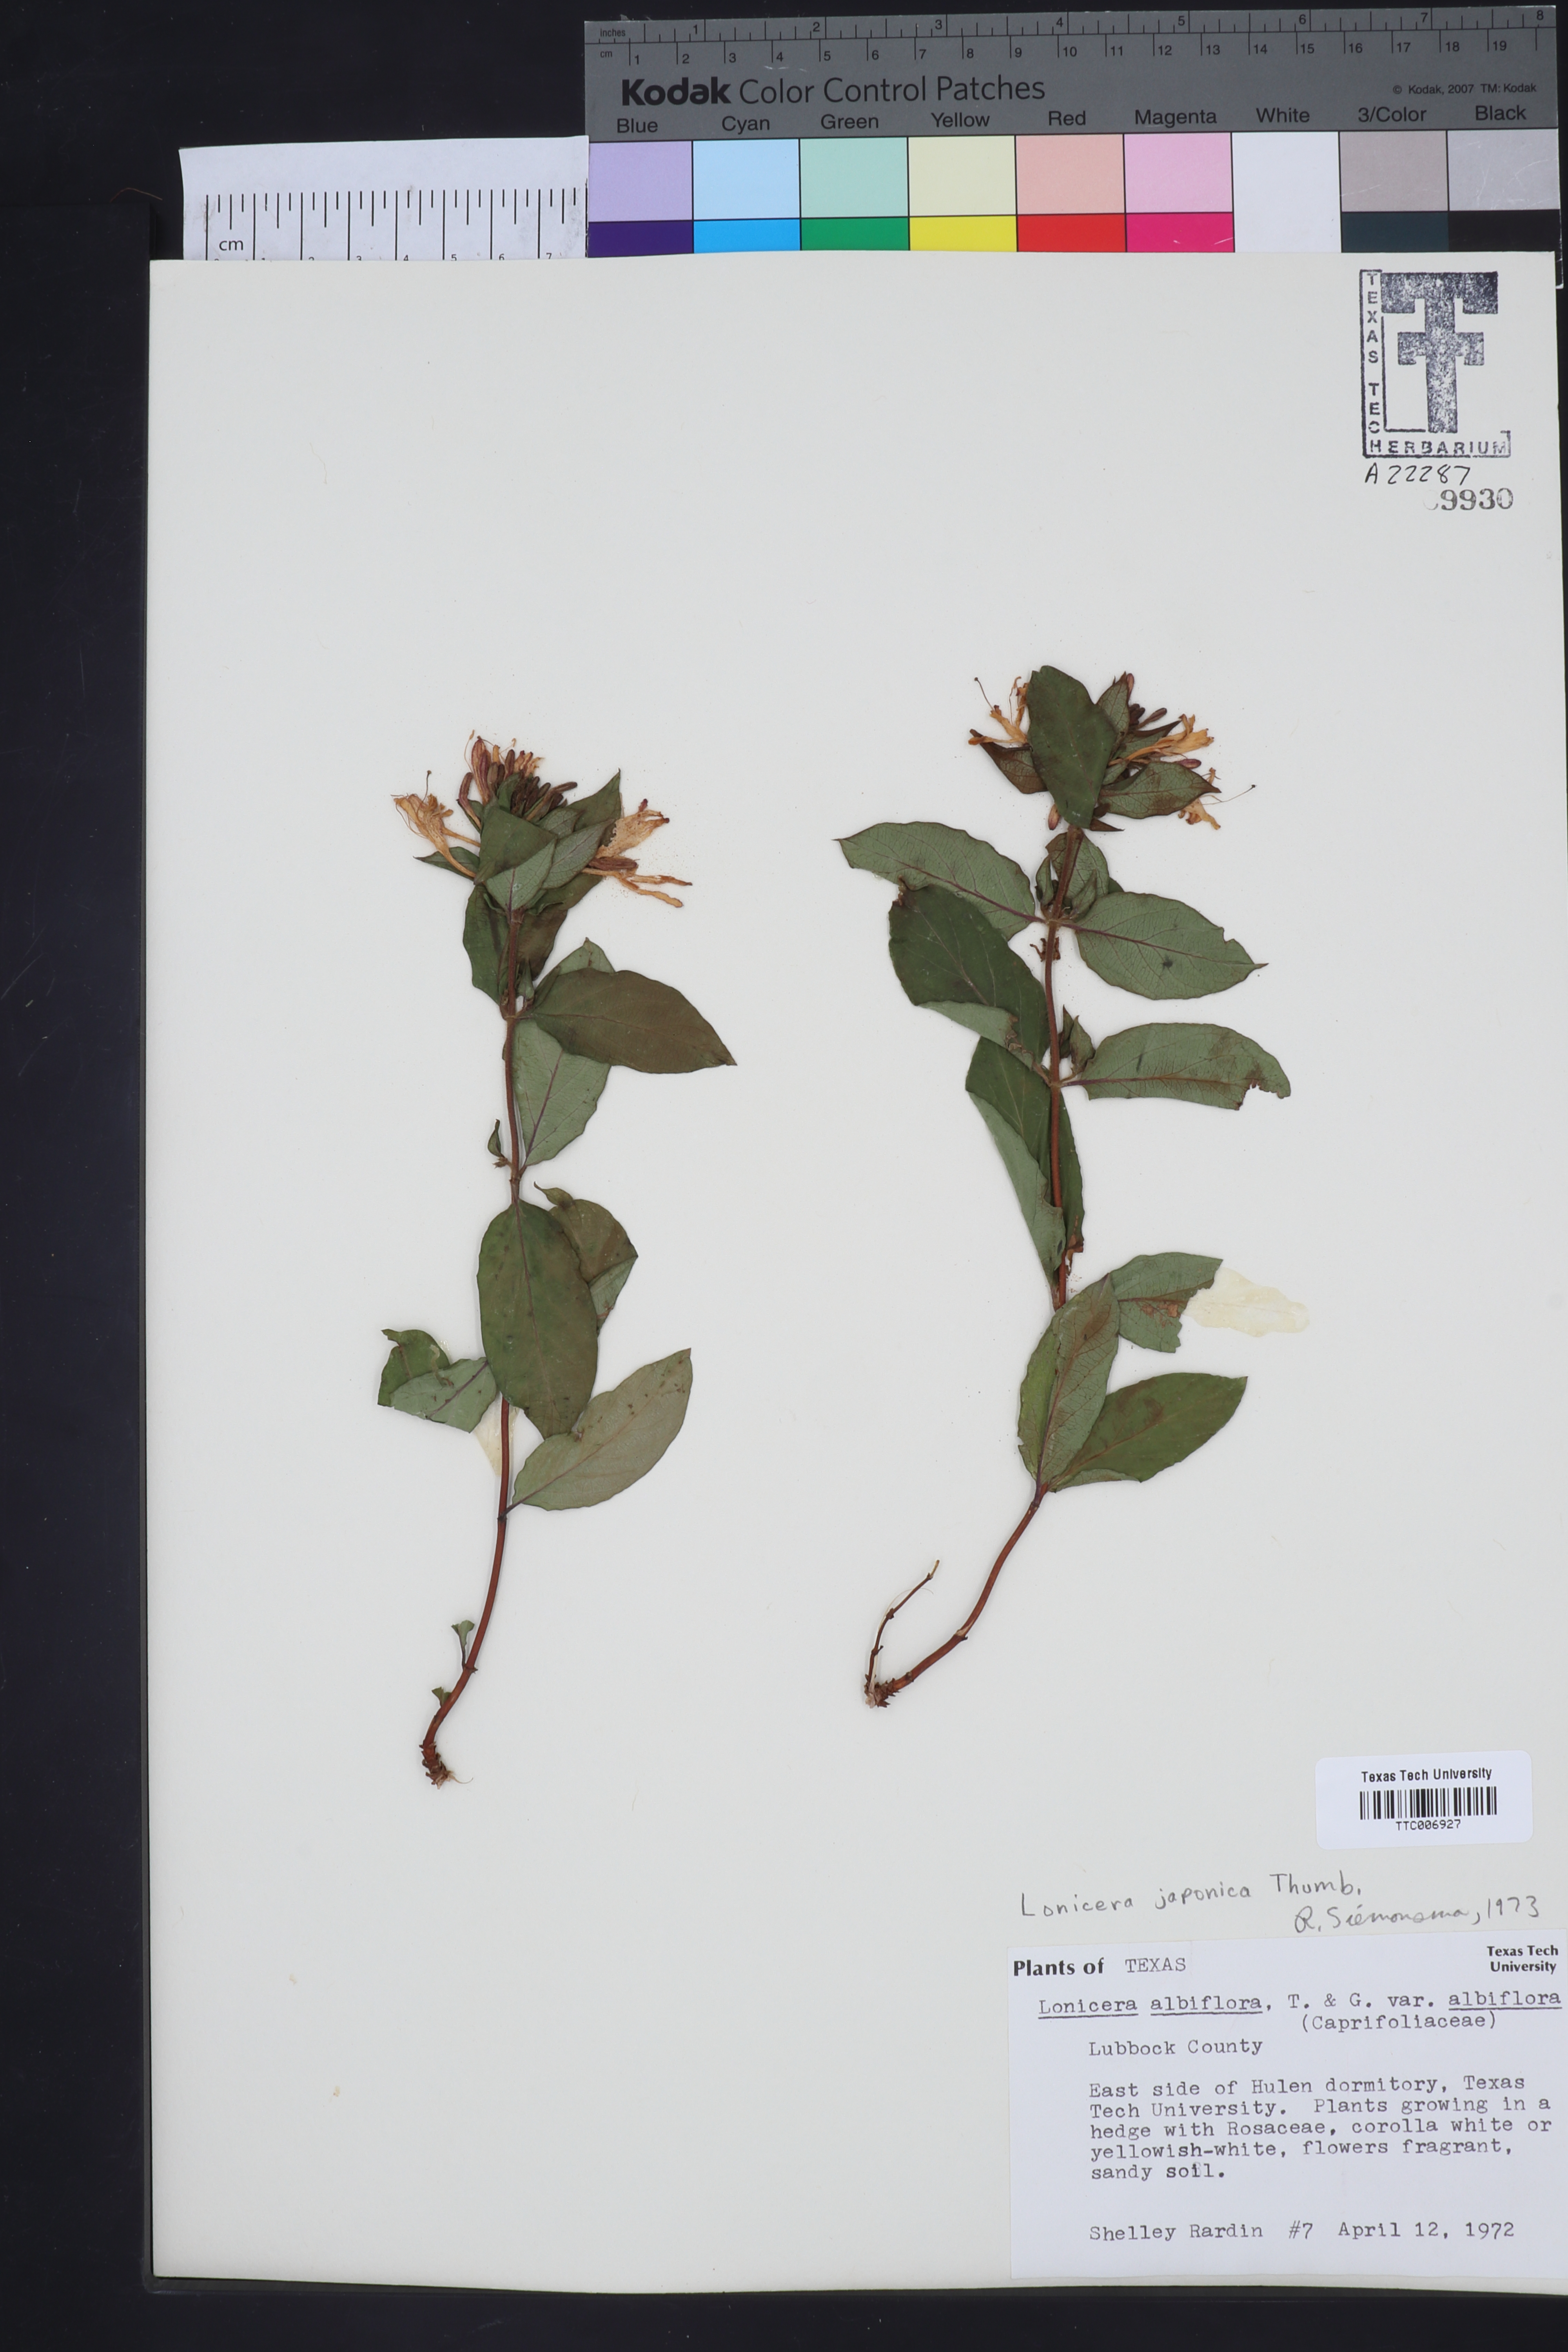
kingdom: Plantae
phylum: Tracheophyta
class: Magnoliopsida
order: Dipsacales
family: Caprifoliaceae
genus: Lonicera
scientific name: Lonicera albiflora
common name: White honeysuckle
